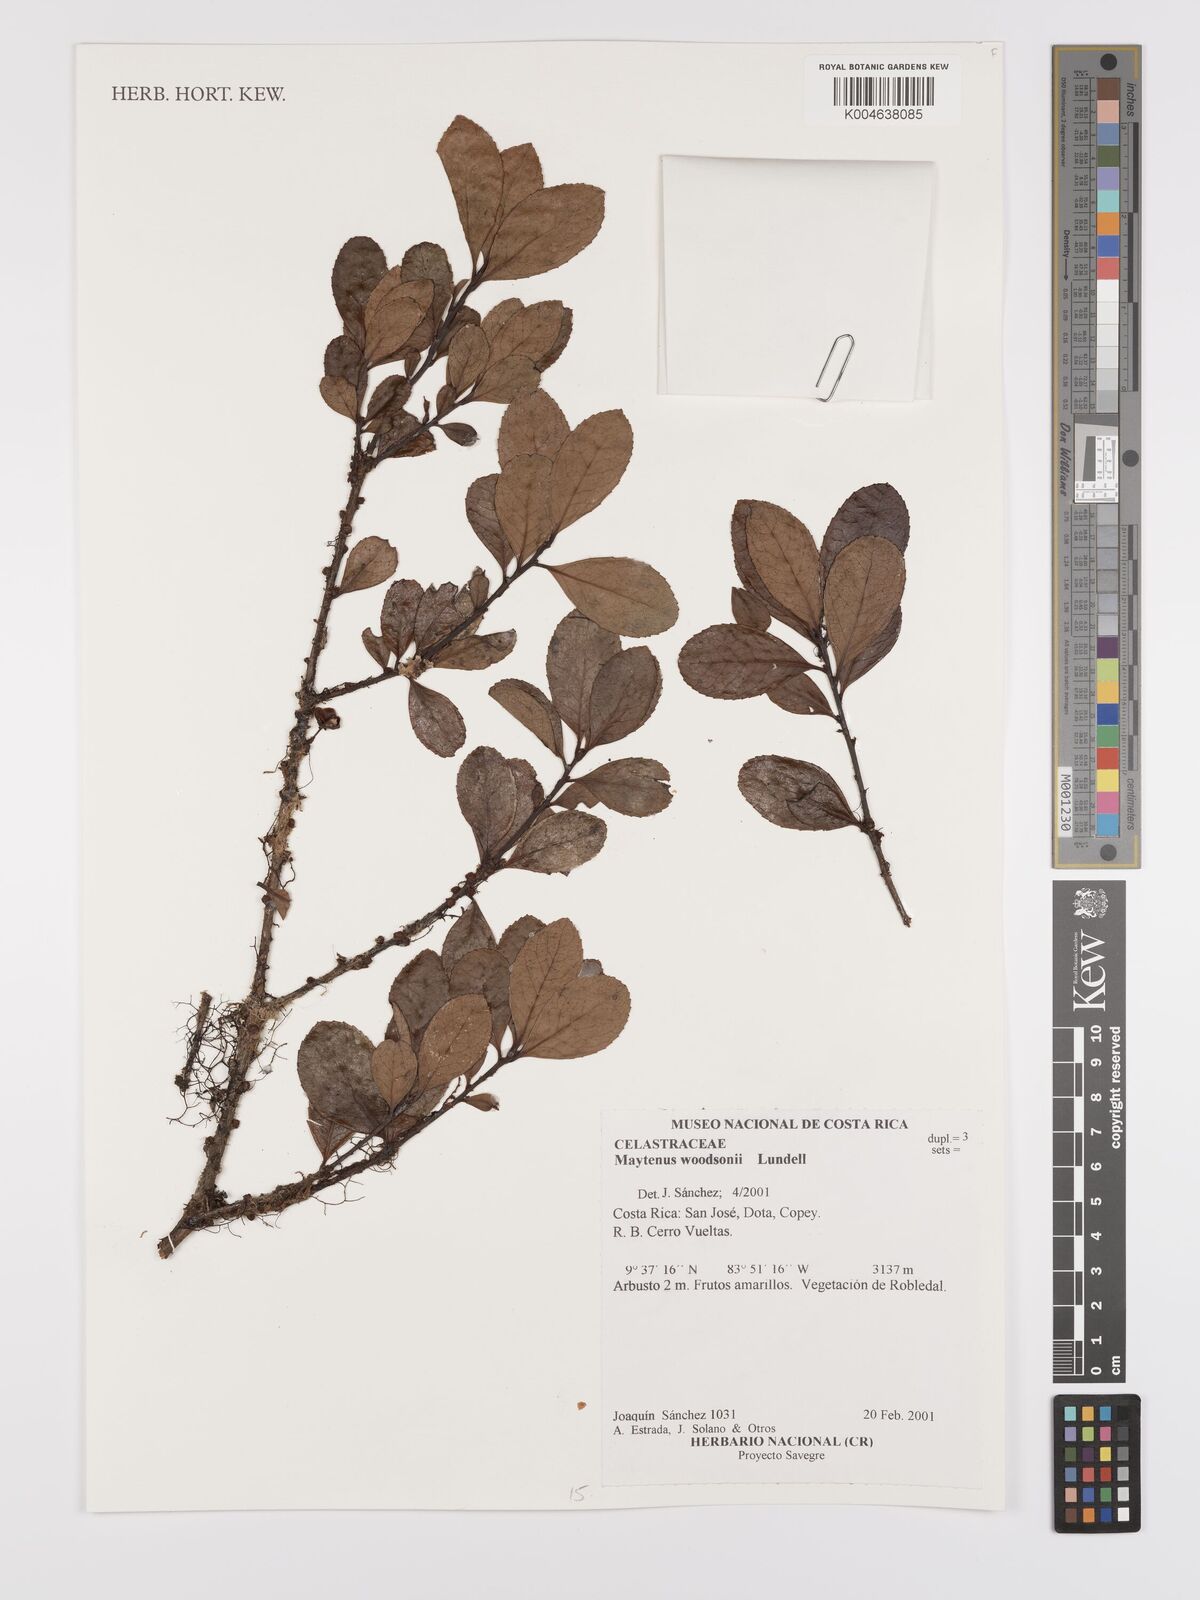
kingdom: Plantae
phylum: Tracheophyta
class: Magnoliopsida
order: Celastrales
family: Celastraceae
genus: Maytenus
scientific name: Maytenus woodsonii
